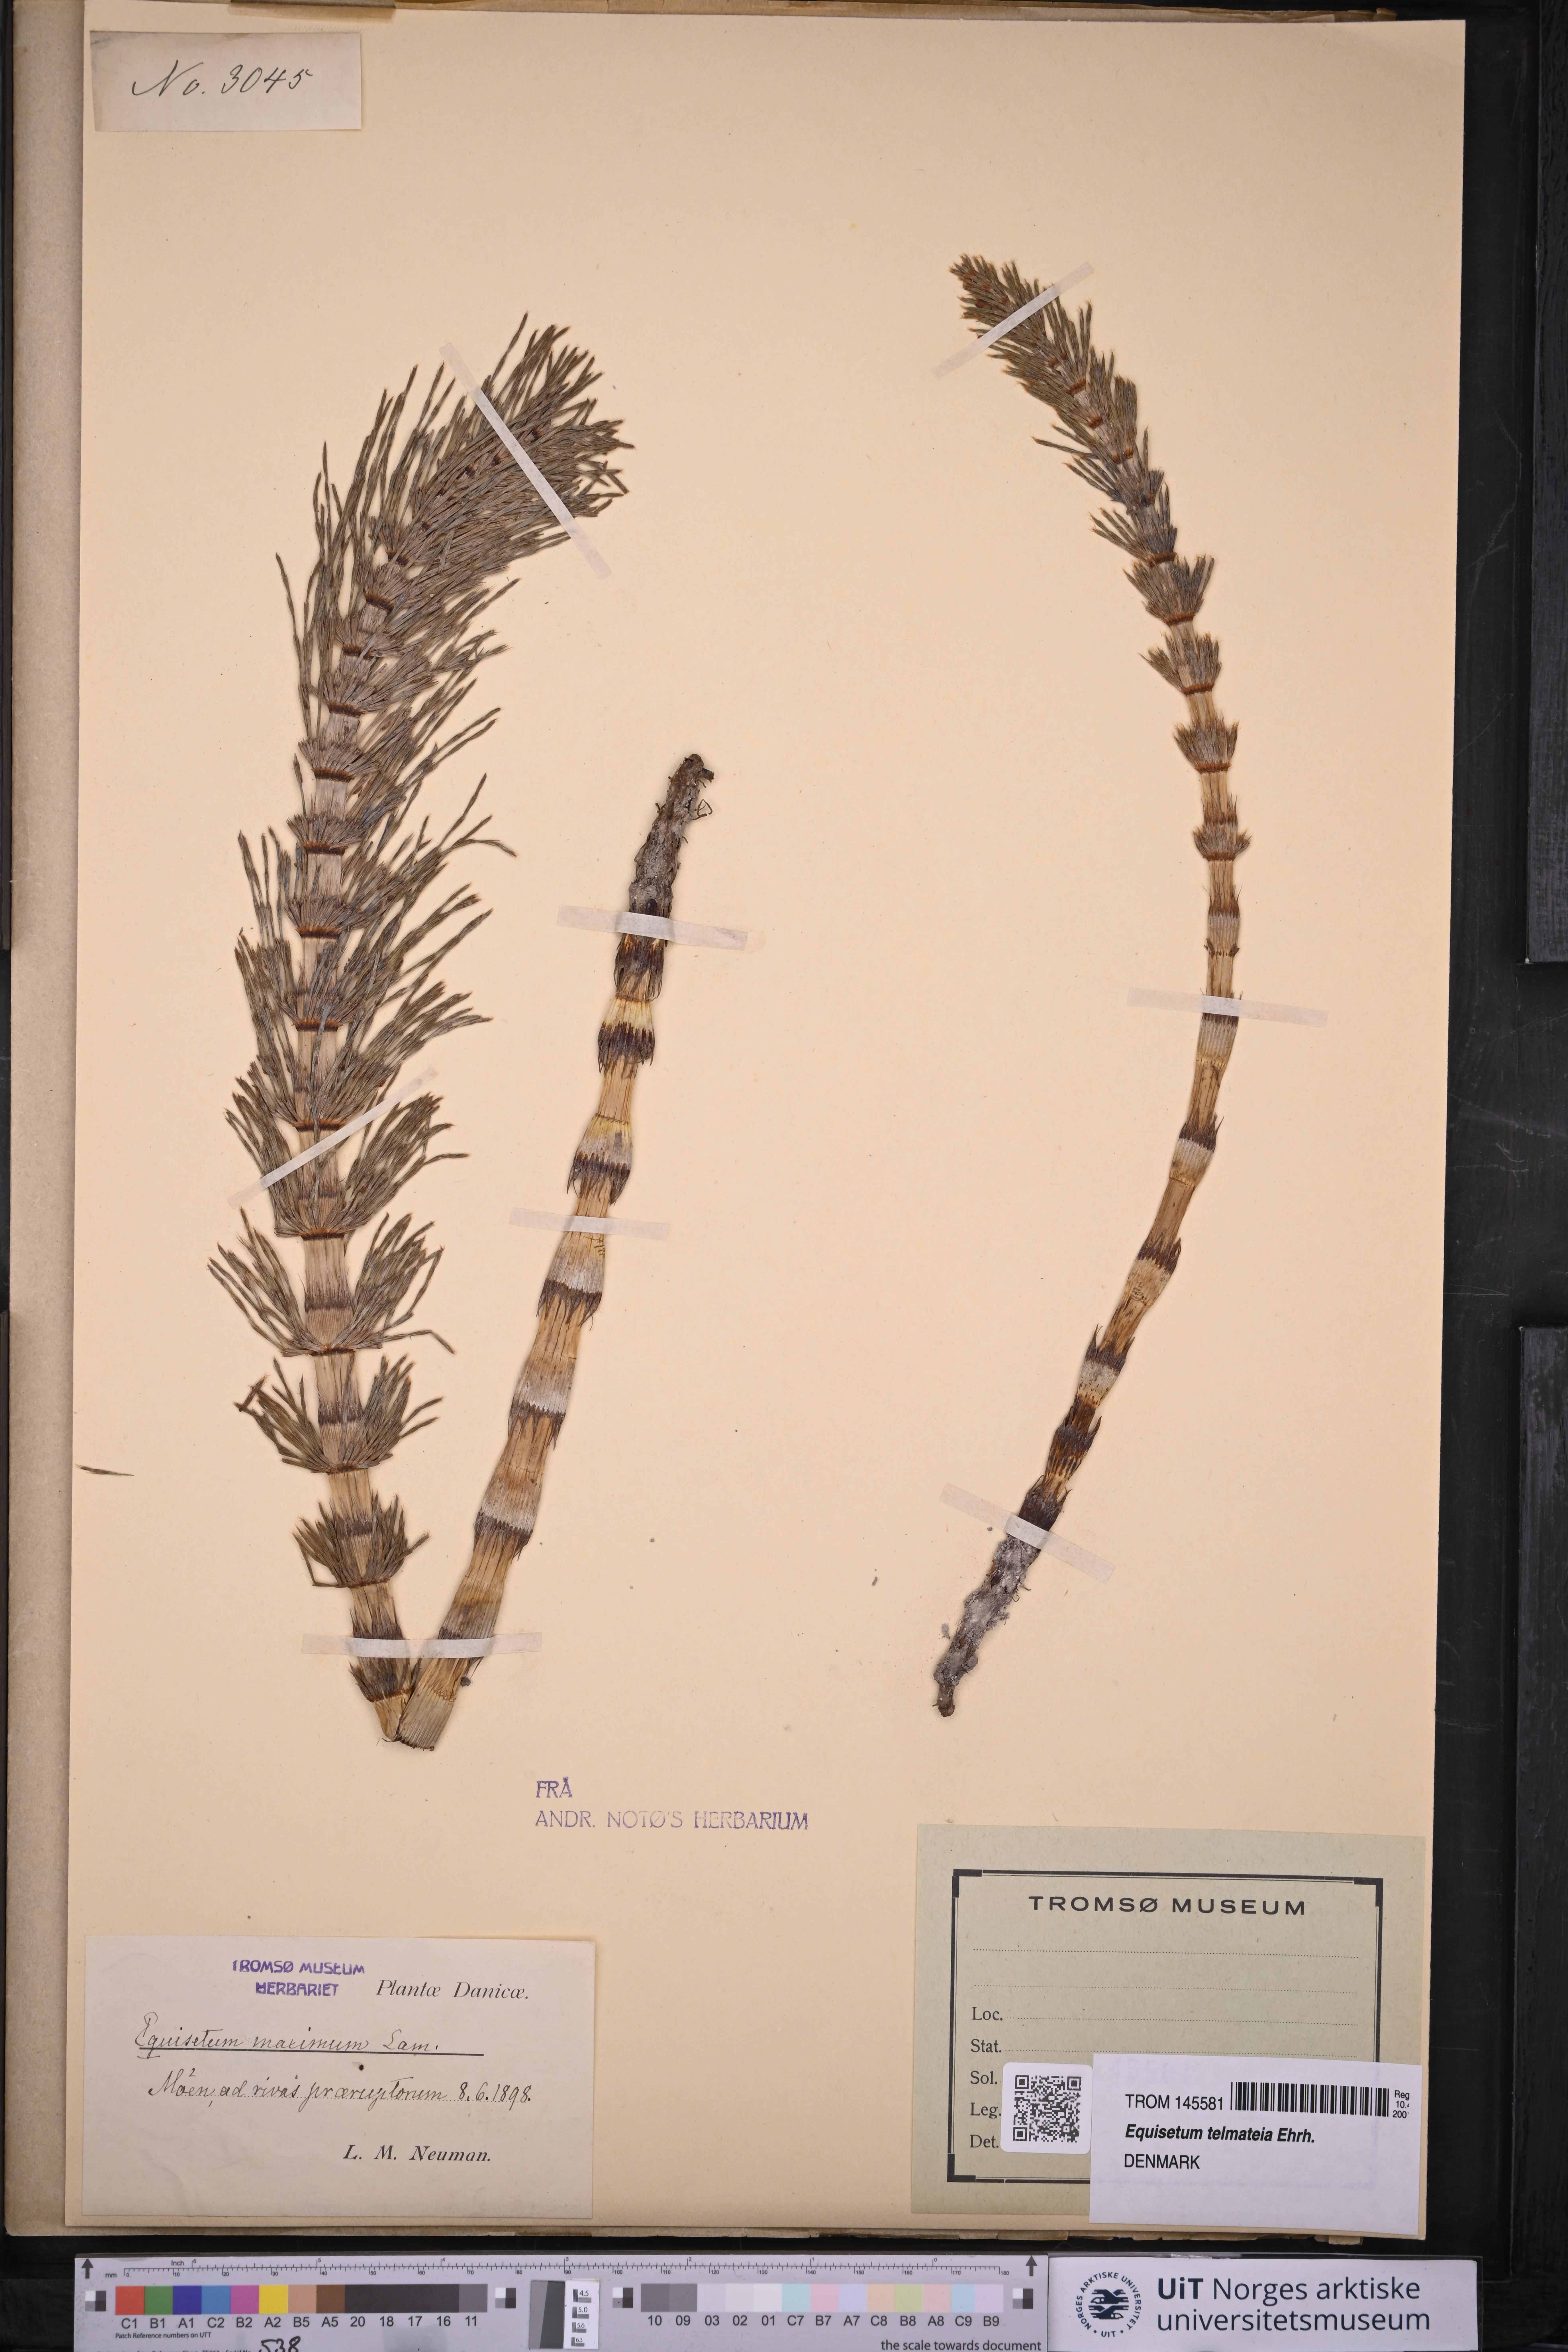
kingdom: Plantae
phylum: Tracheophyta
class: Polypodiopsida
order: Equisetales
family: Equisetaceae
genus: Equisetum
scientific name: Equisetum telmateia
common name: Great horsetail
